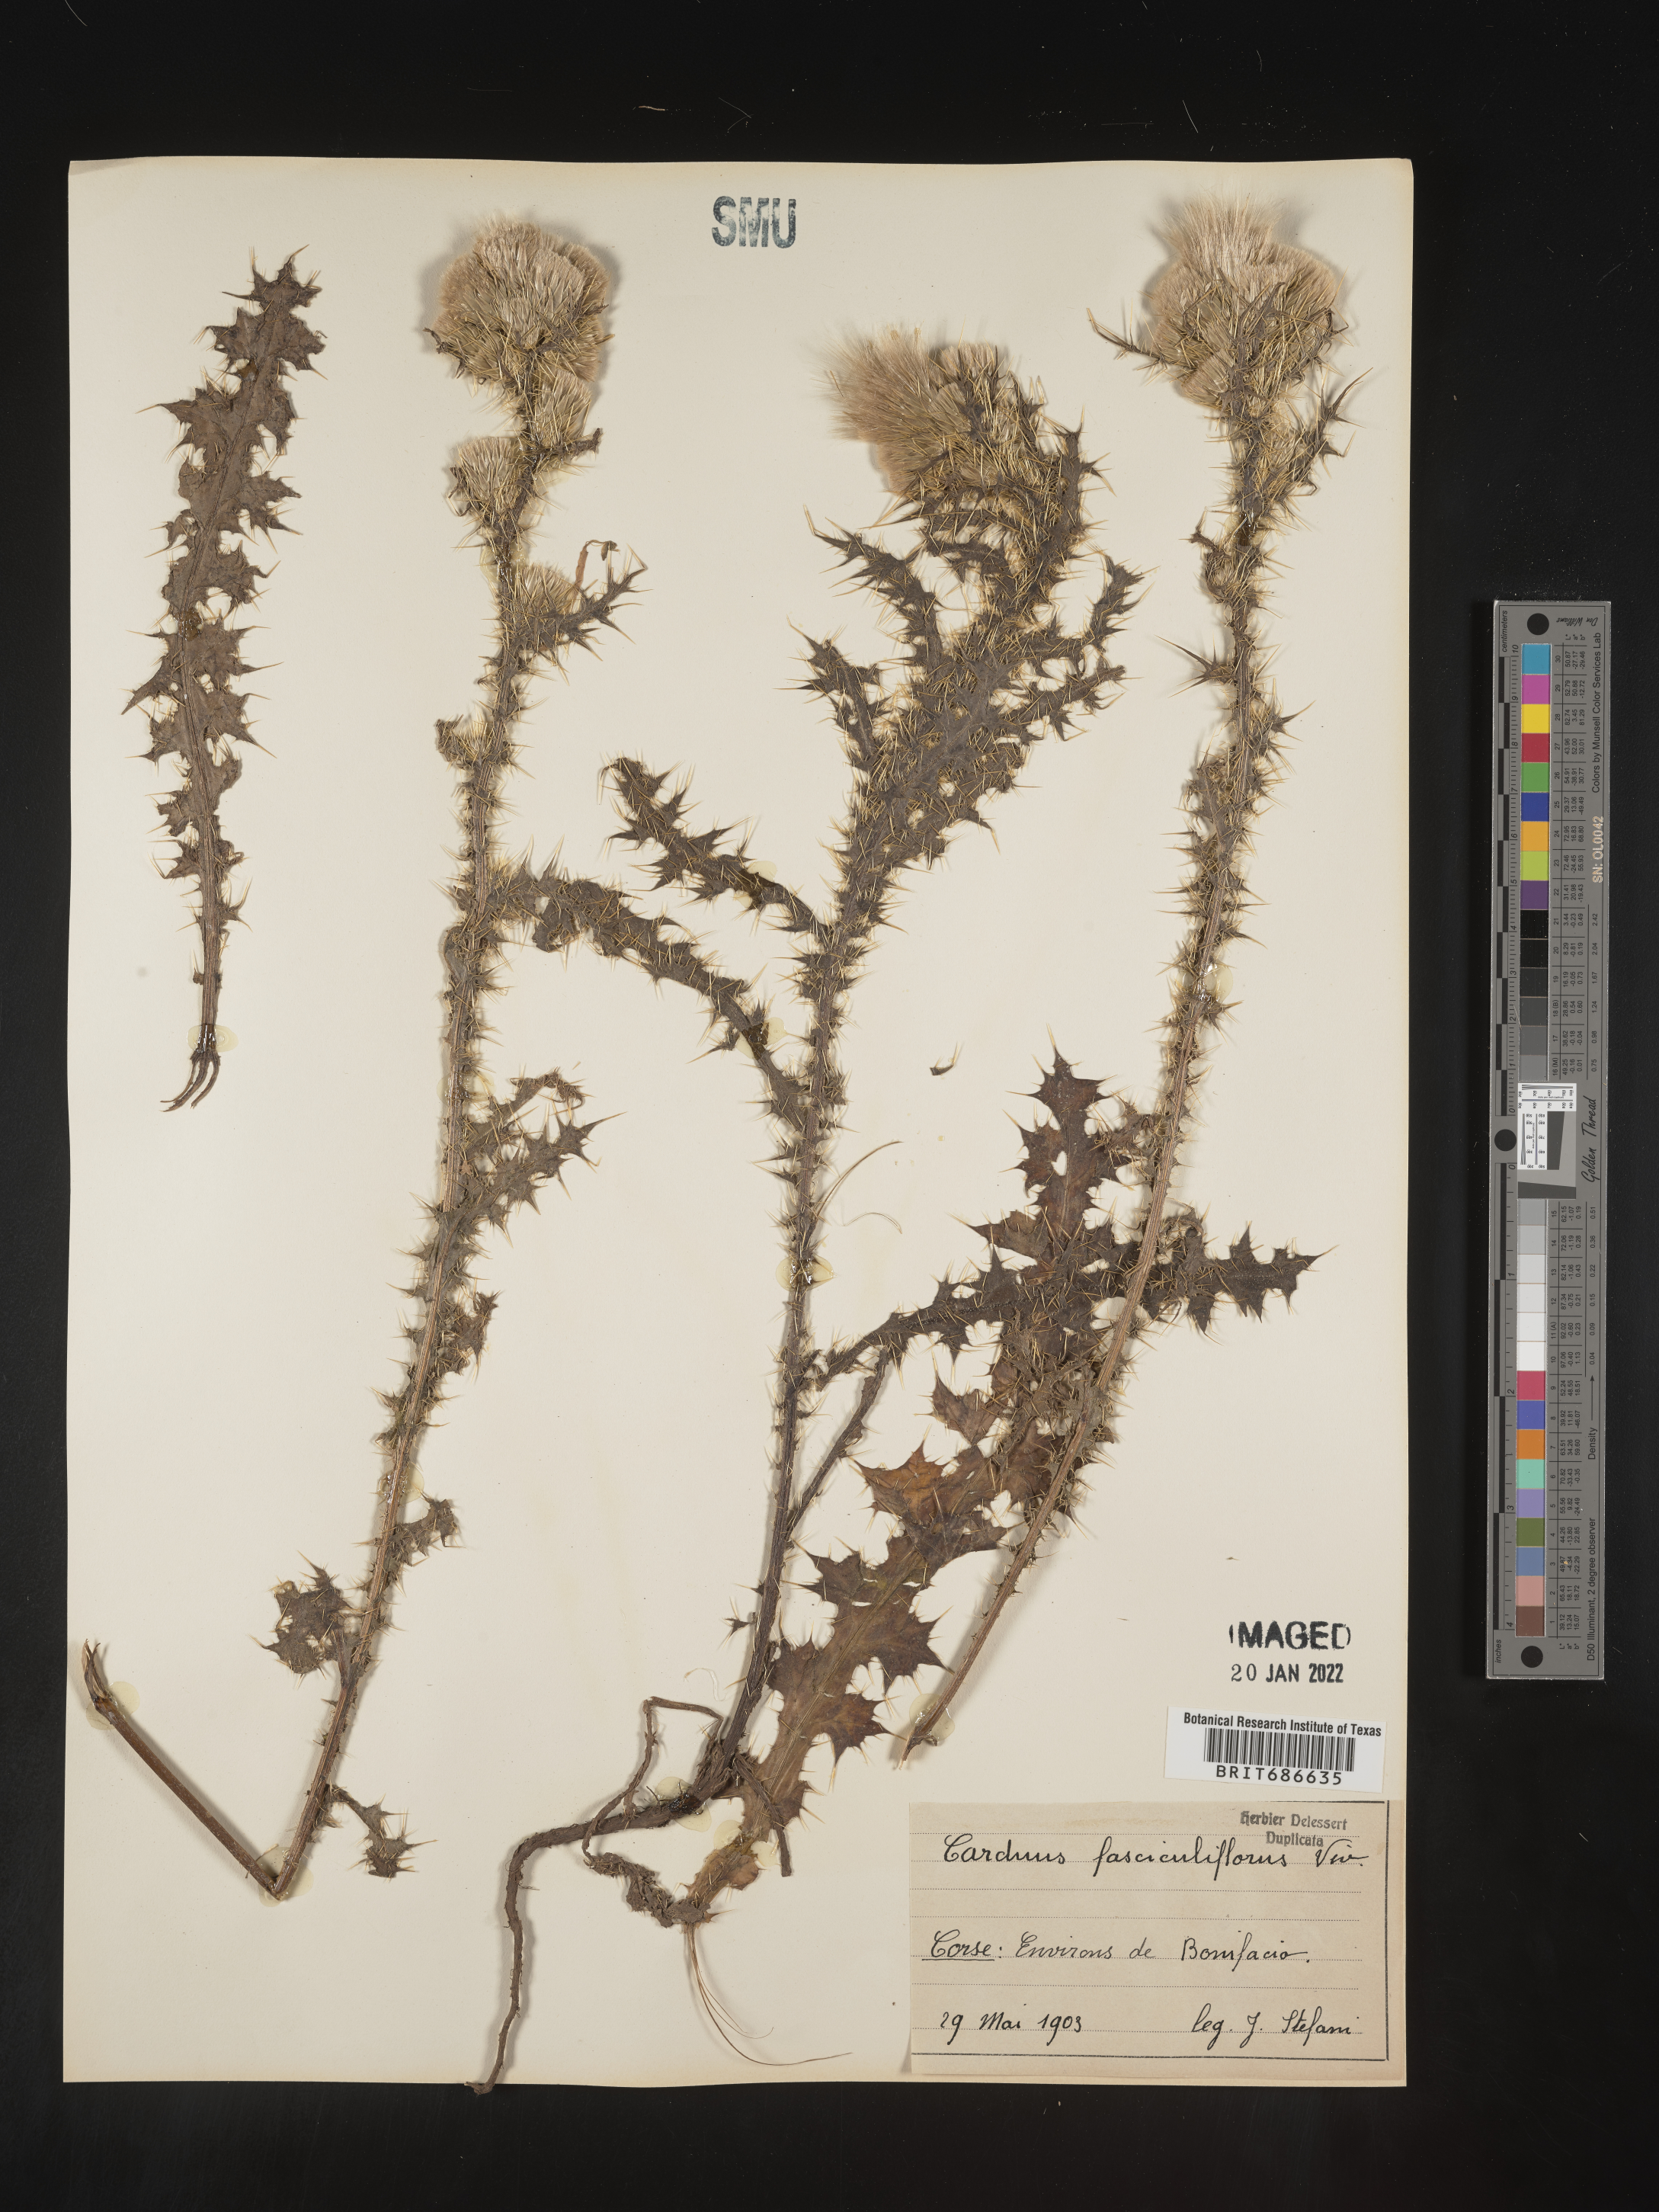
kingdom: Plantae
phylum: Tracheophyta
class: Magnoliopsida
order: Asterales
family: Asteraceae
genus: Carduus
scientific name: Carduus
